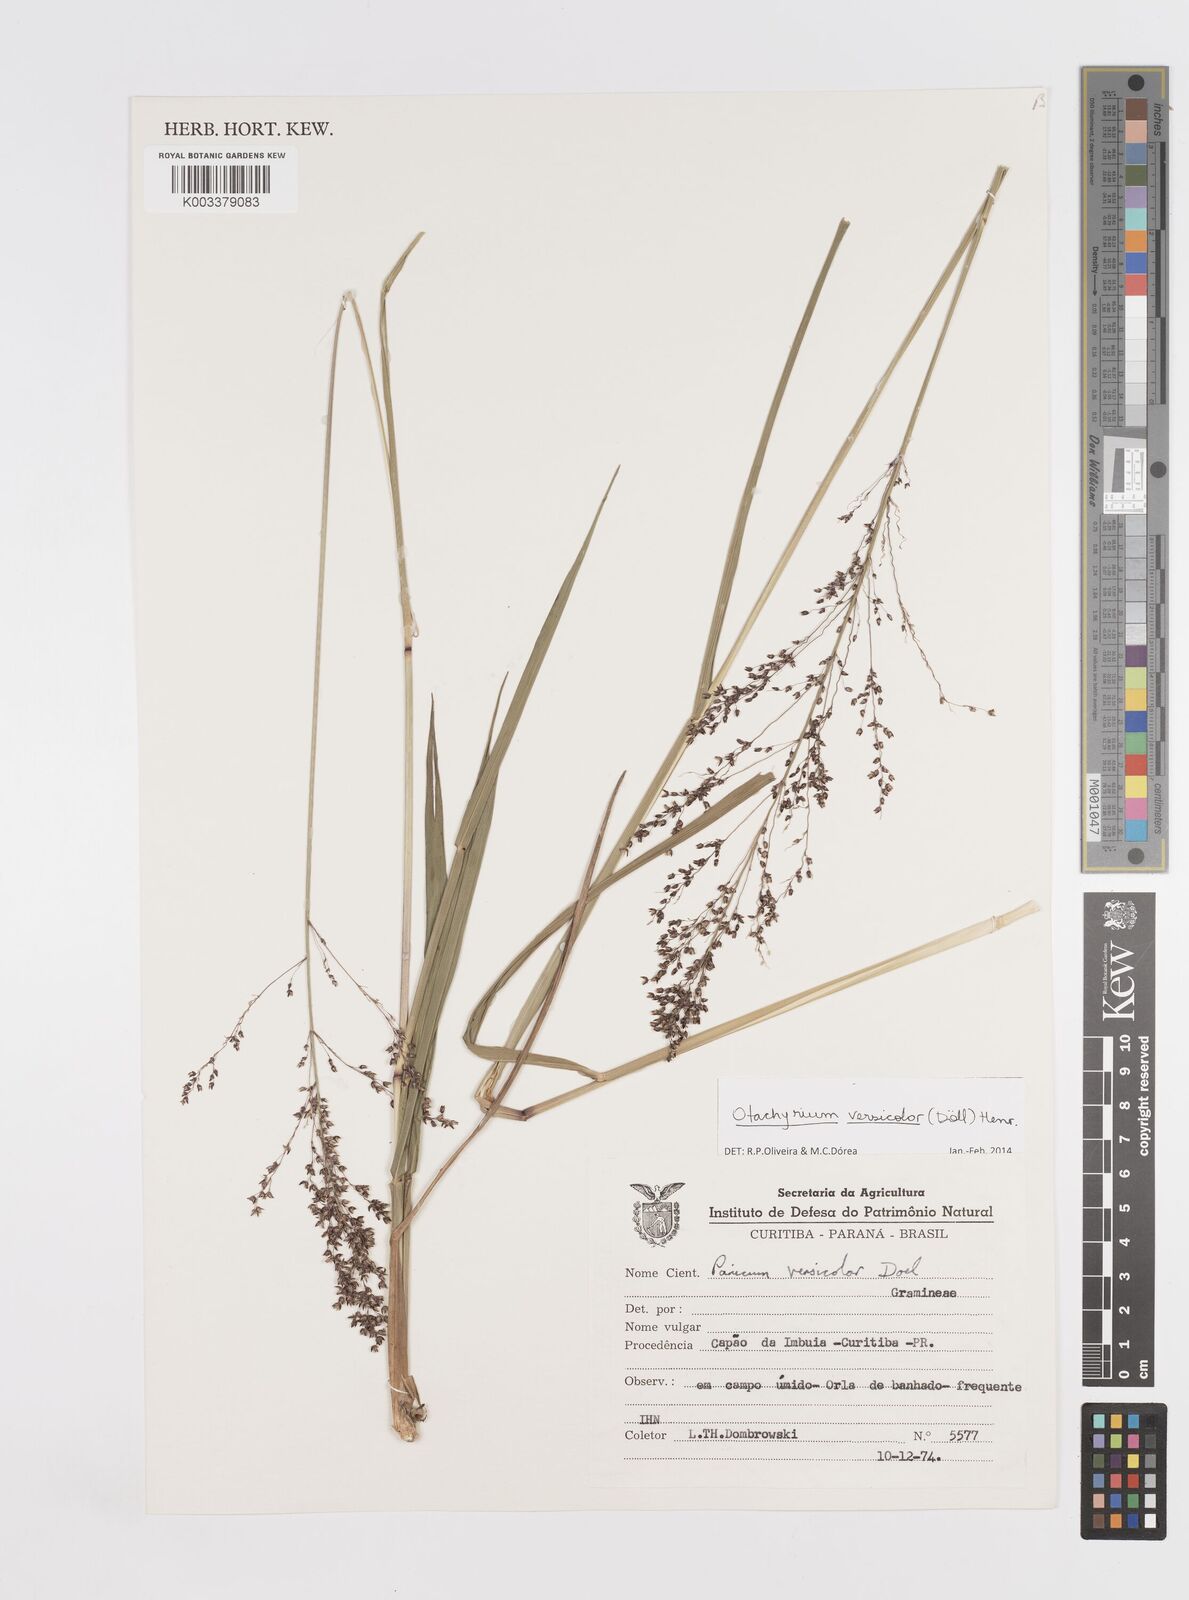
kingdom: Plantae
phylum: Tracheophyta
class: Liliopsida
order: Poales
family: Poaceae
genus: Otachyrium
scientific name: Otachyrium versicolor
